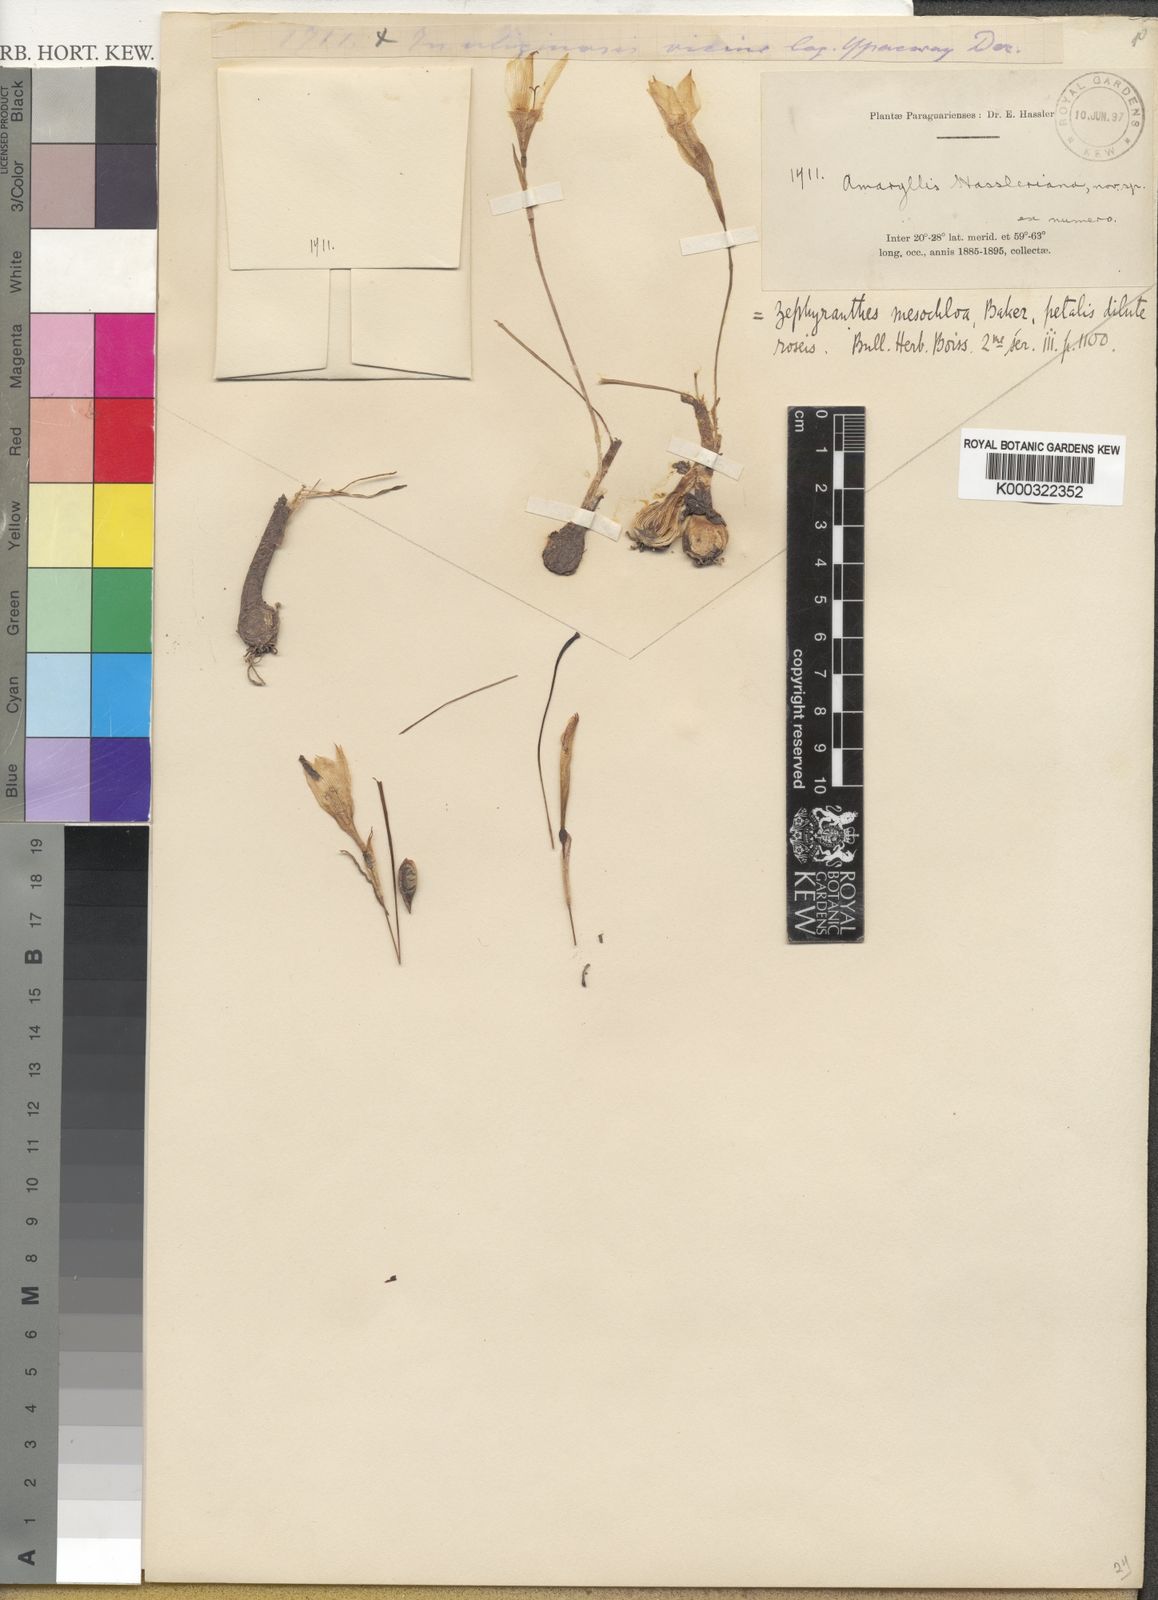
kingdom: Plantae
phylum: Tracheophyta
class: Liliopsida
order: Asparagales
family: Amaryllidaceae
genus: Zephyranthes
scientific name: Zephyranthes
